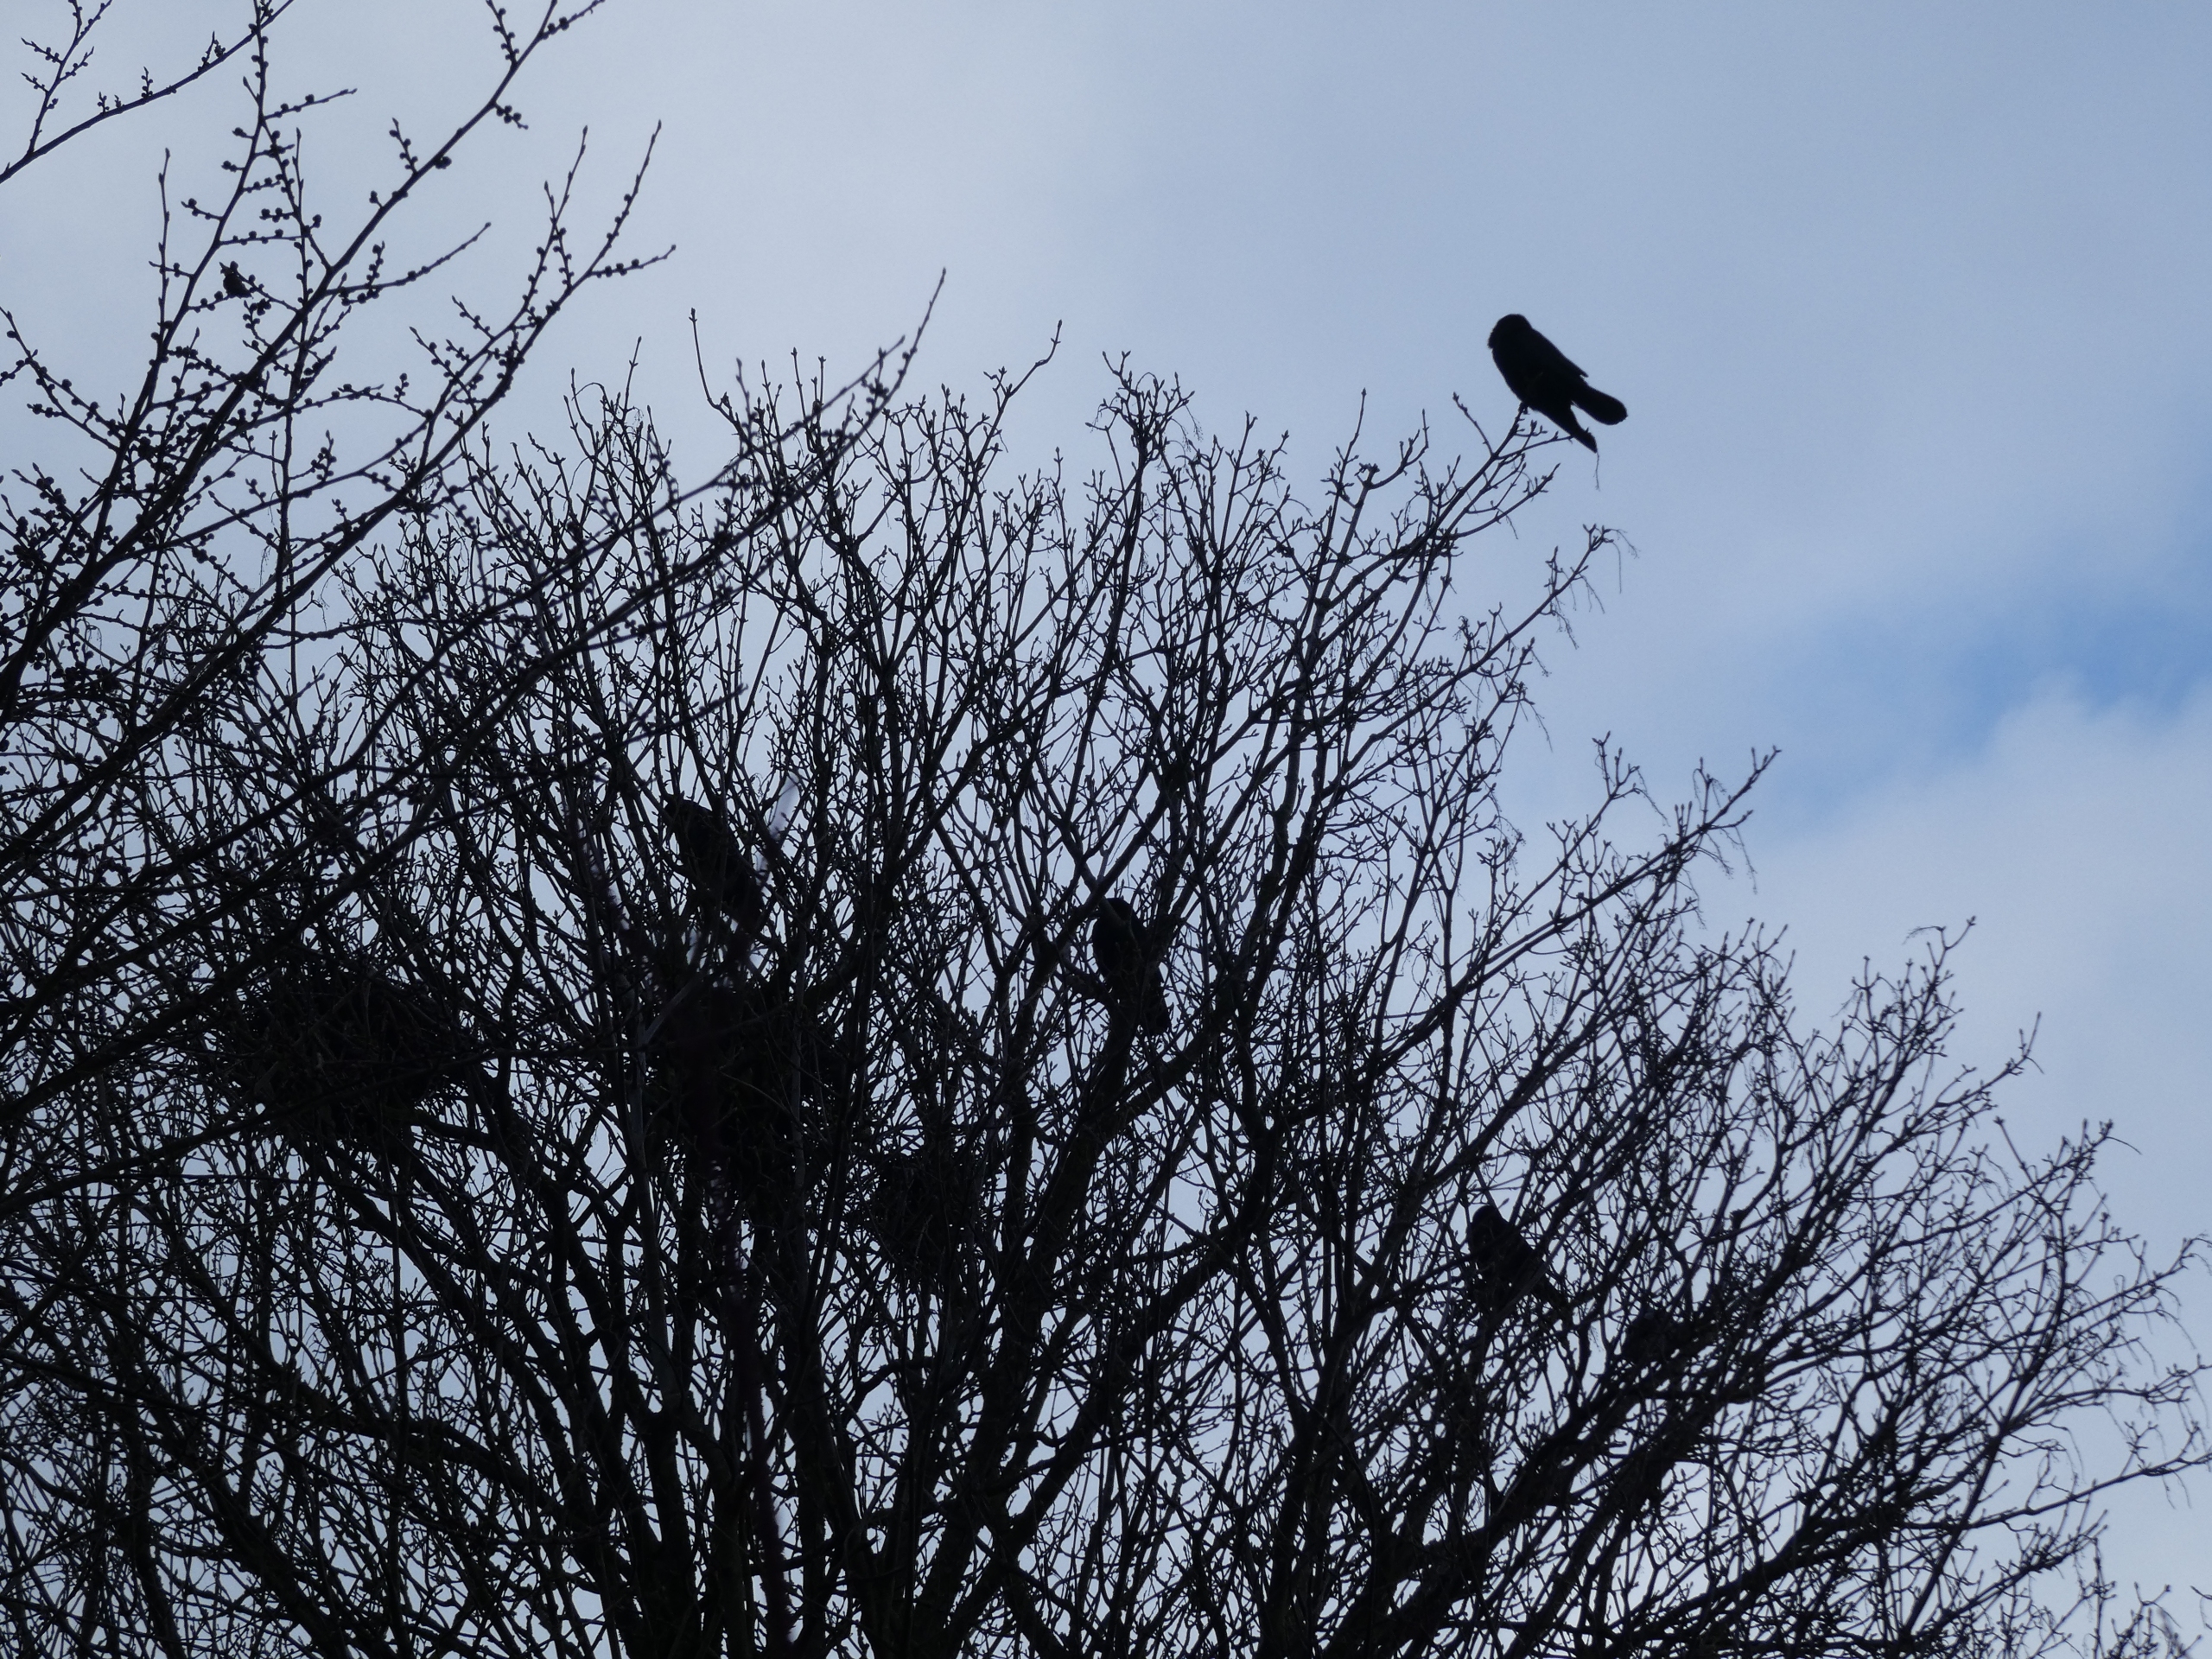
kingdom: Animalia
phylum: Chordata
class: Aves
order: Passeriformes
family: Corvidae
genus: Corvus
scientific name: Corvus frugilegus
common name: Råge
